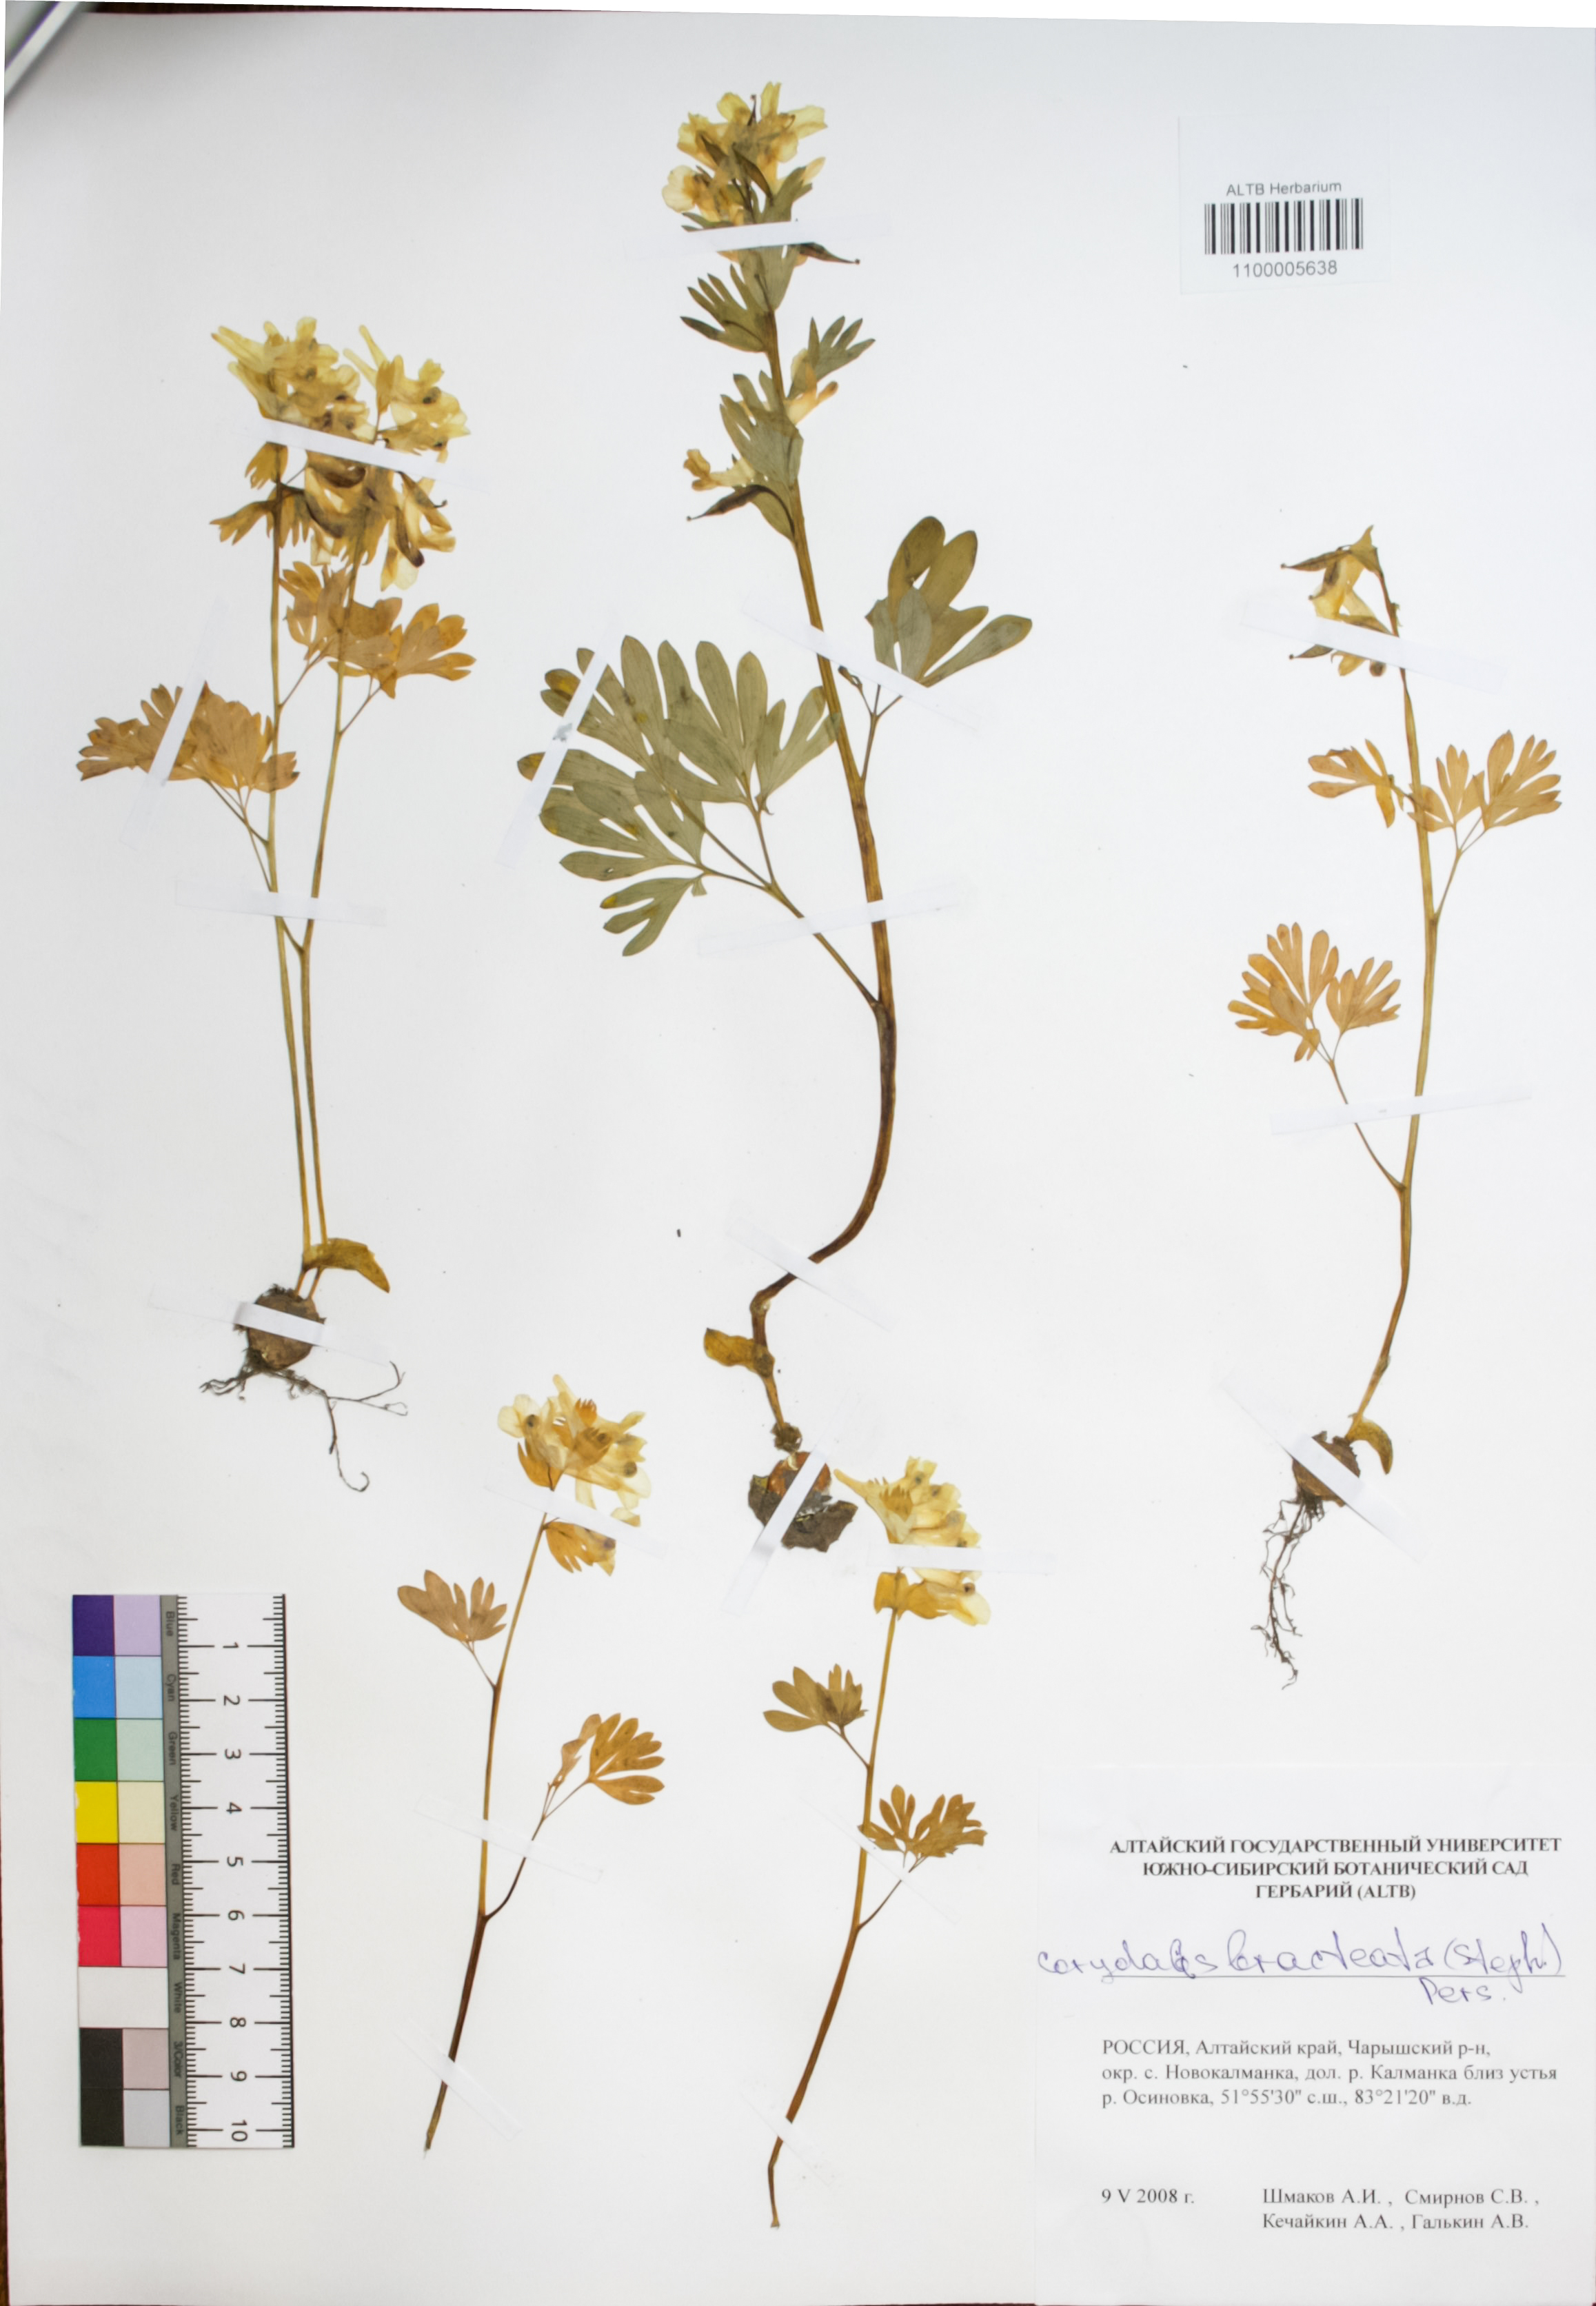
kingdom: Plantae
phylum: Tracheophyta
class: Magnoliopsida
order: Ranunculales
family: Papaveraceae
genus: Corydalis
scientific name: Corydalis bracteata
